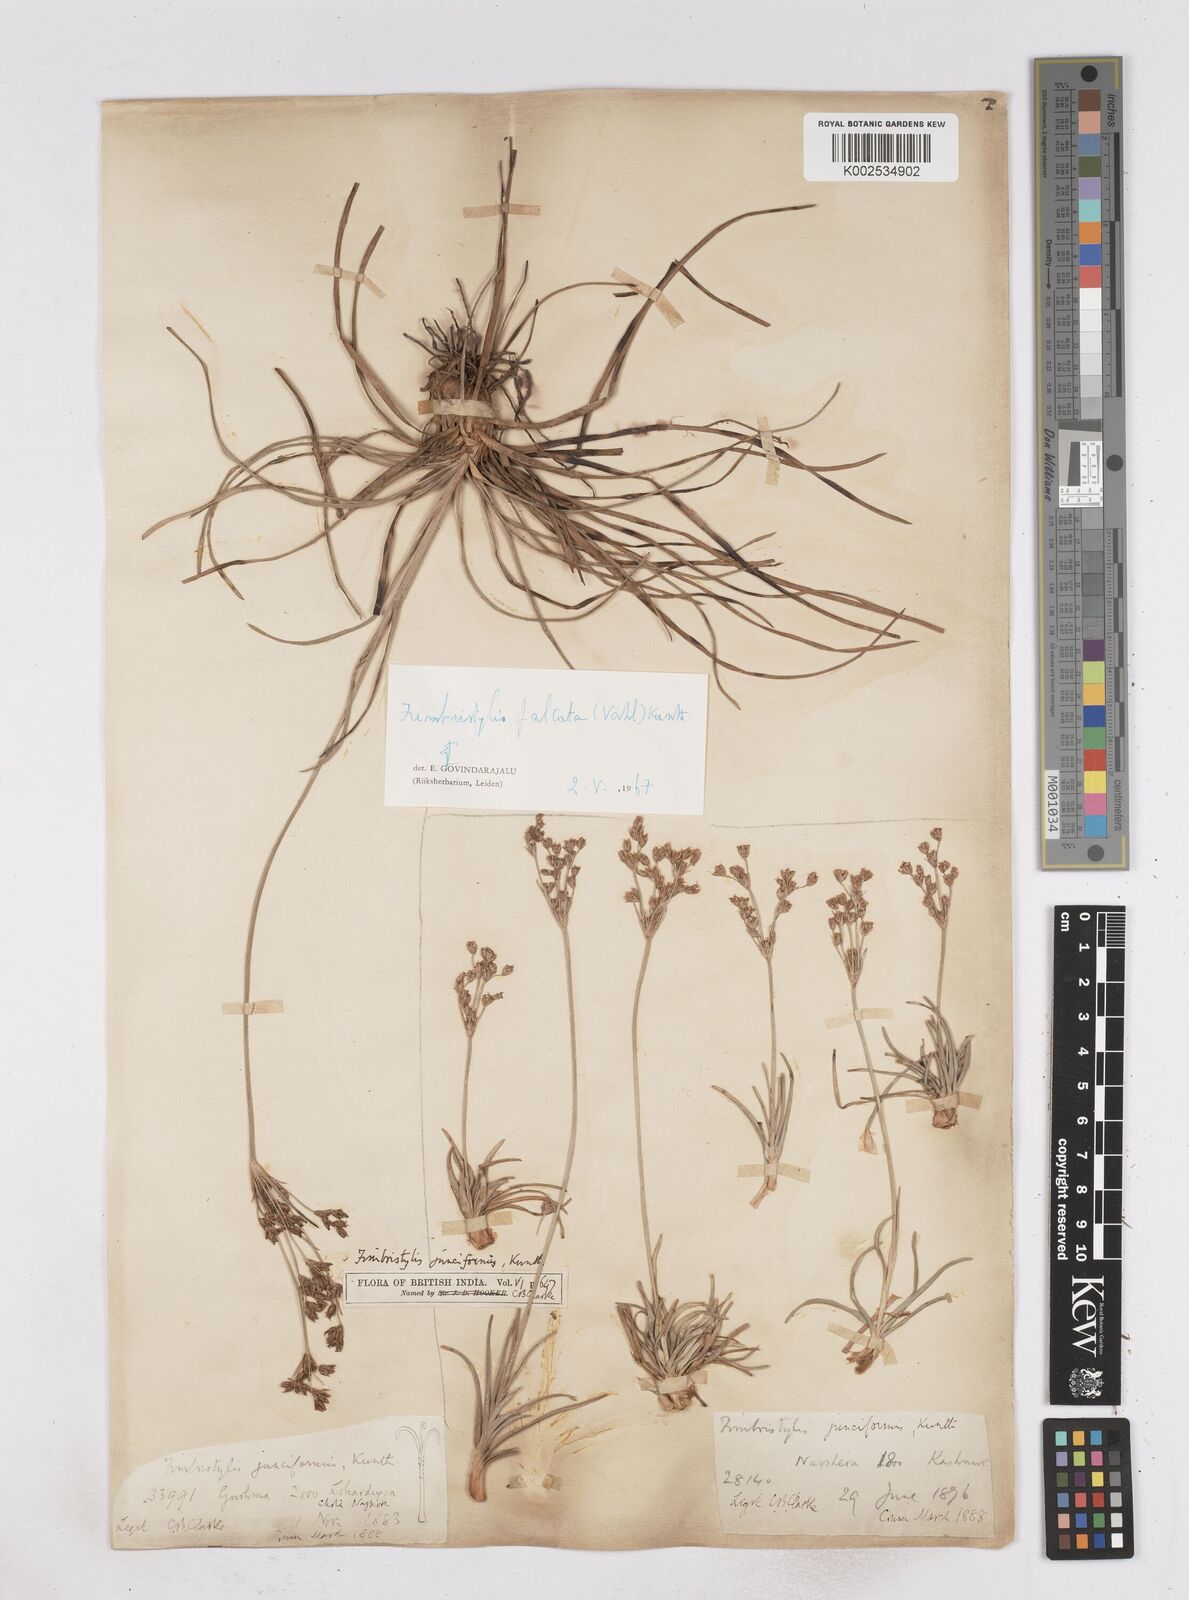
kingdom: Plantae
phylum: Tracheophyta
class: Liliopsida
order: Poales
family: Cyperaceae
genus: Fimbristylis
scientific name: Fimbristylis falcata
